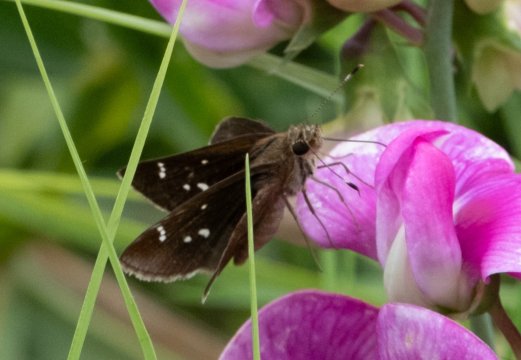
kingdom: Animalia
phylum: Arthropoda
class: Insecta
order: Lepidoptera
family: Hesperiidae
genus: Lerema
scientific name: Lerema accius
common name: Clouded Skipper
